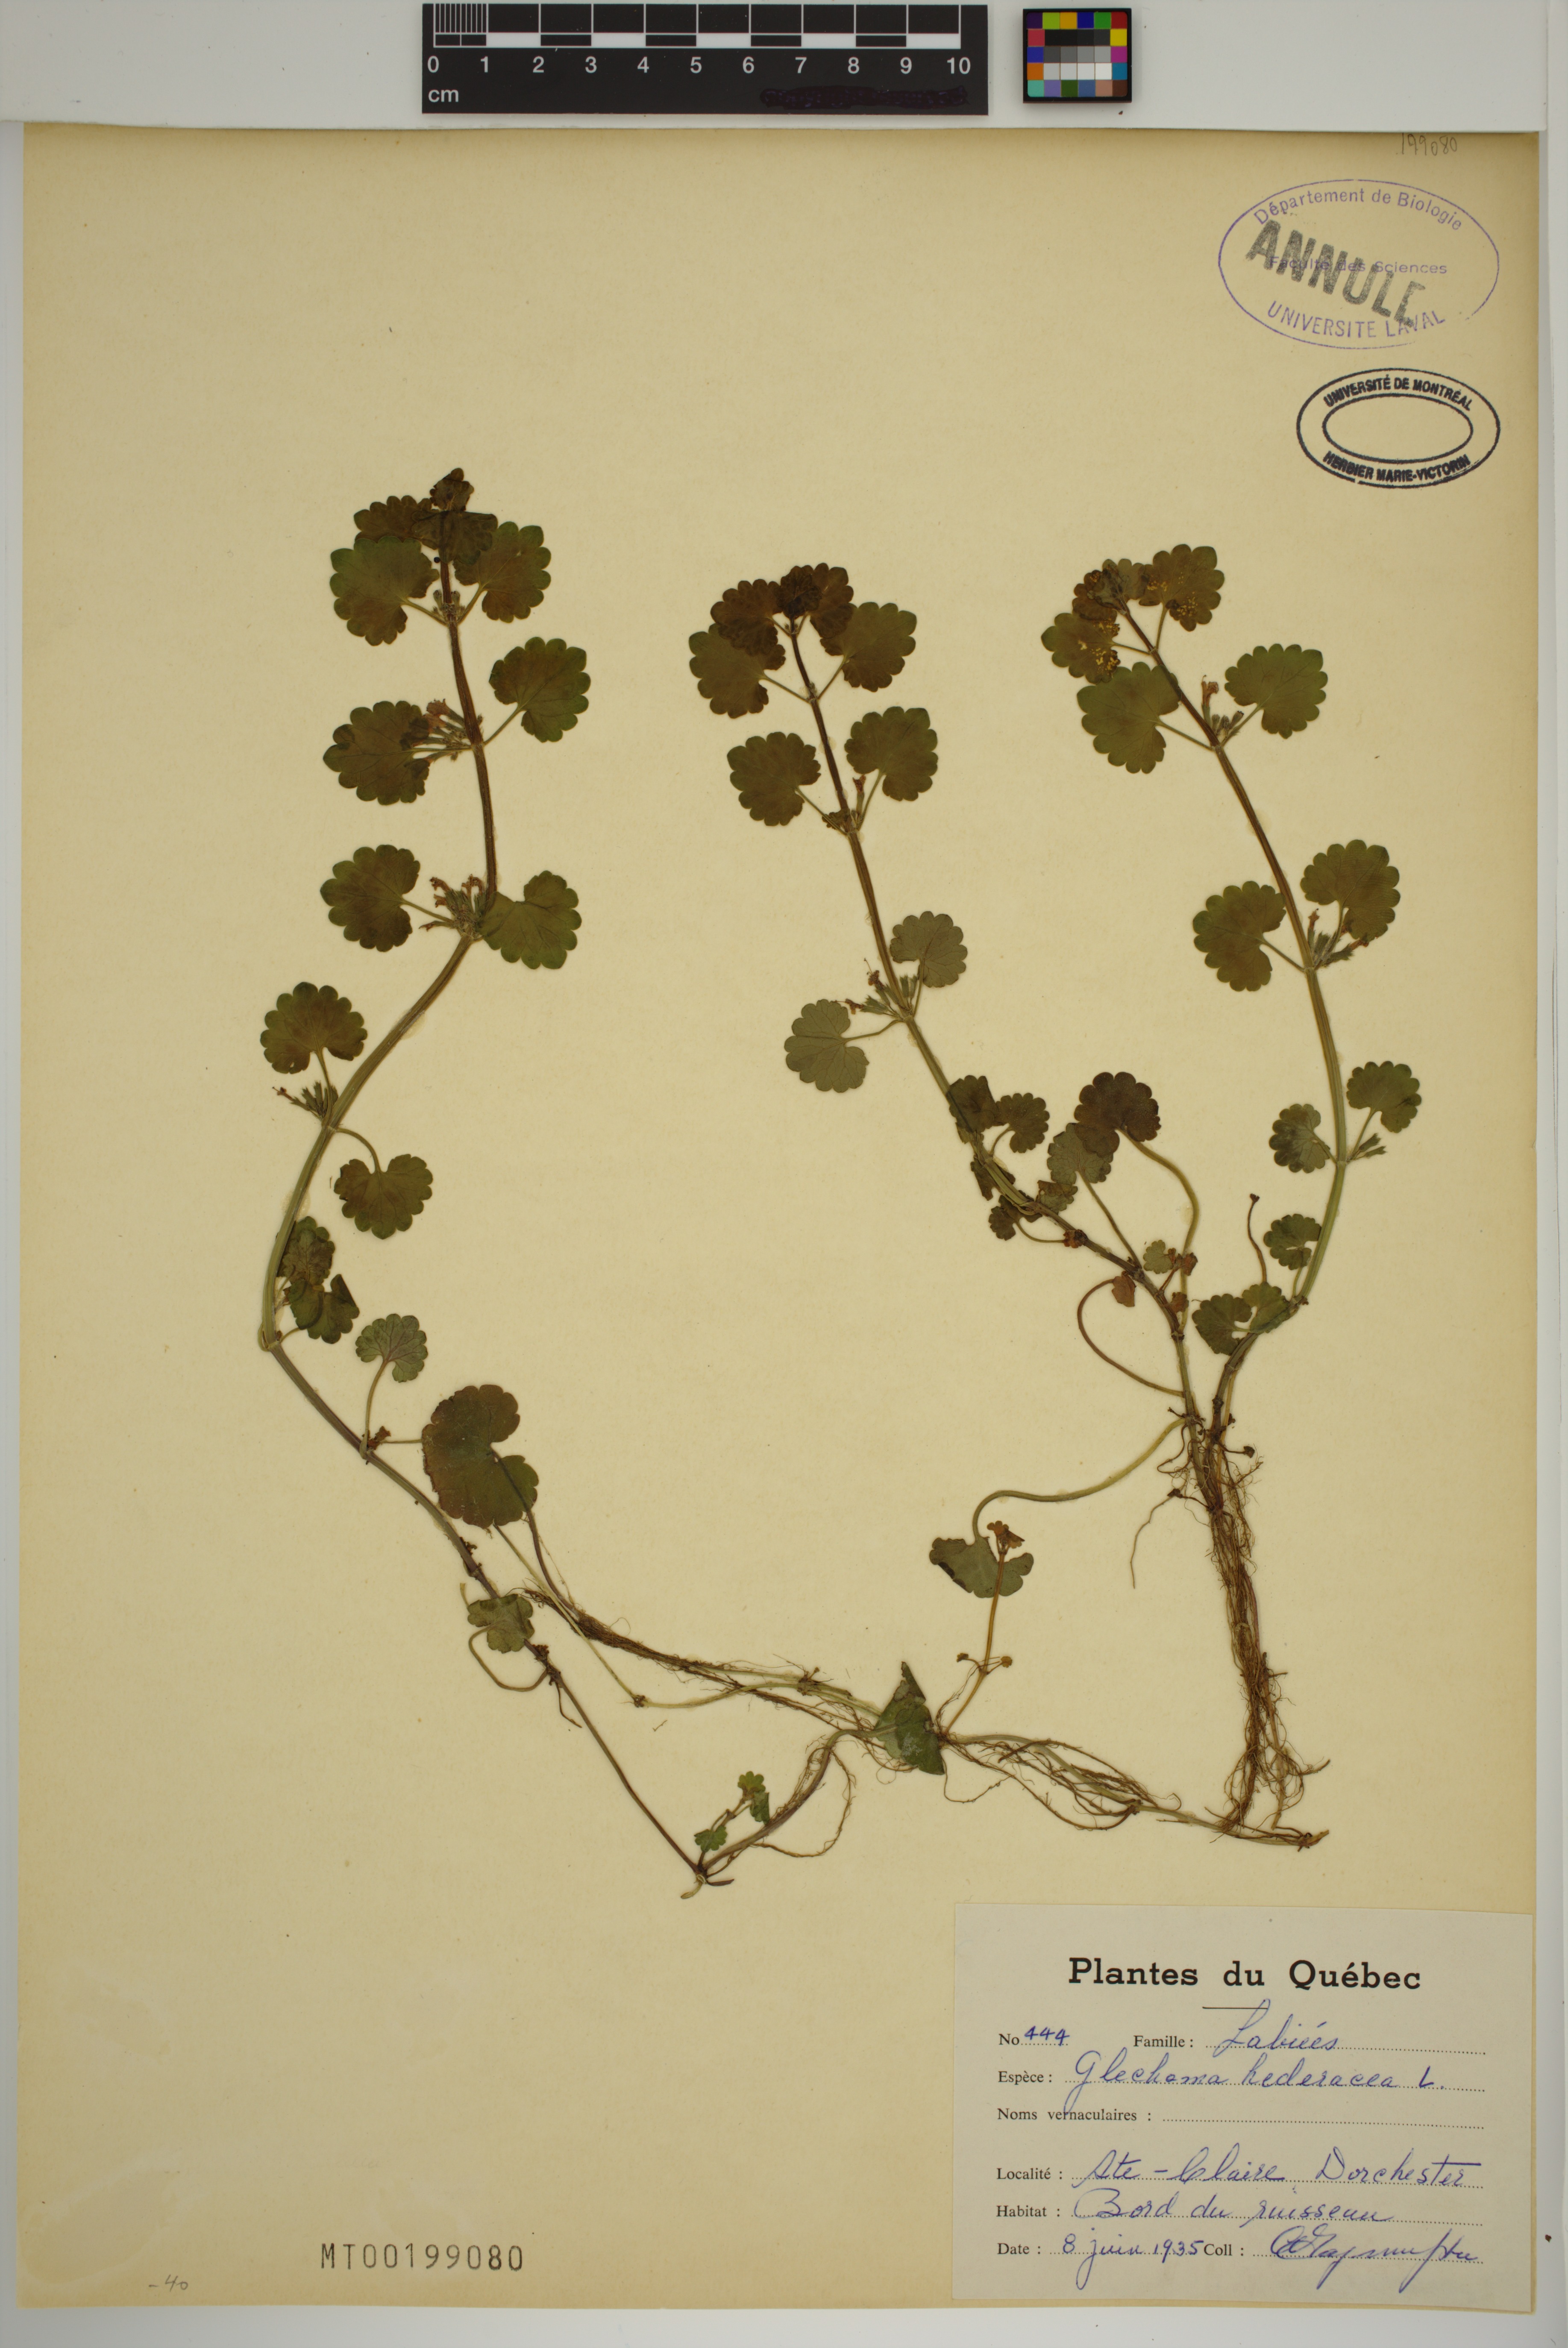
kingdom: Plantae
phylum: Tracheophyta
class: Magnoliopsida
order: Lamiales
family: Lamiaceae
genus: Glechoma
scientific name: Glechoma hederacea
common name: Ground ivy
